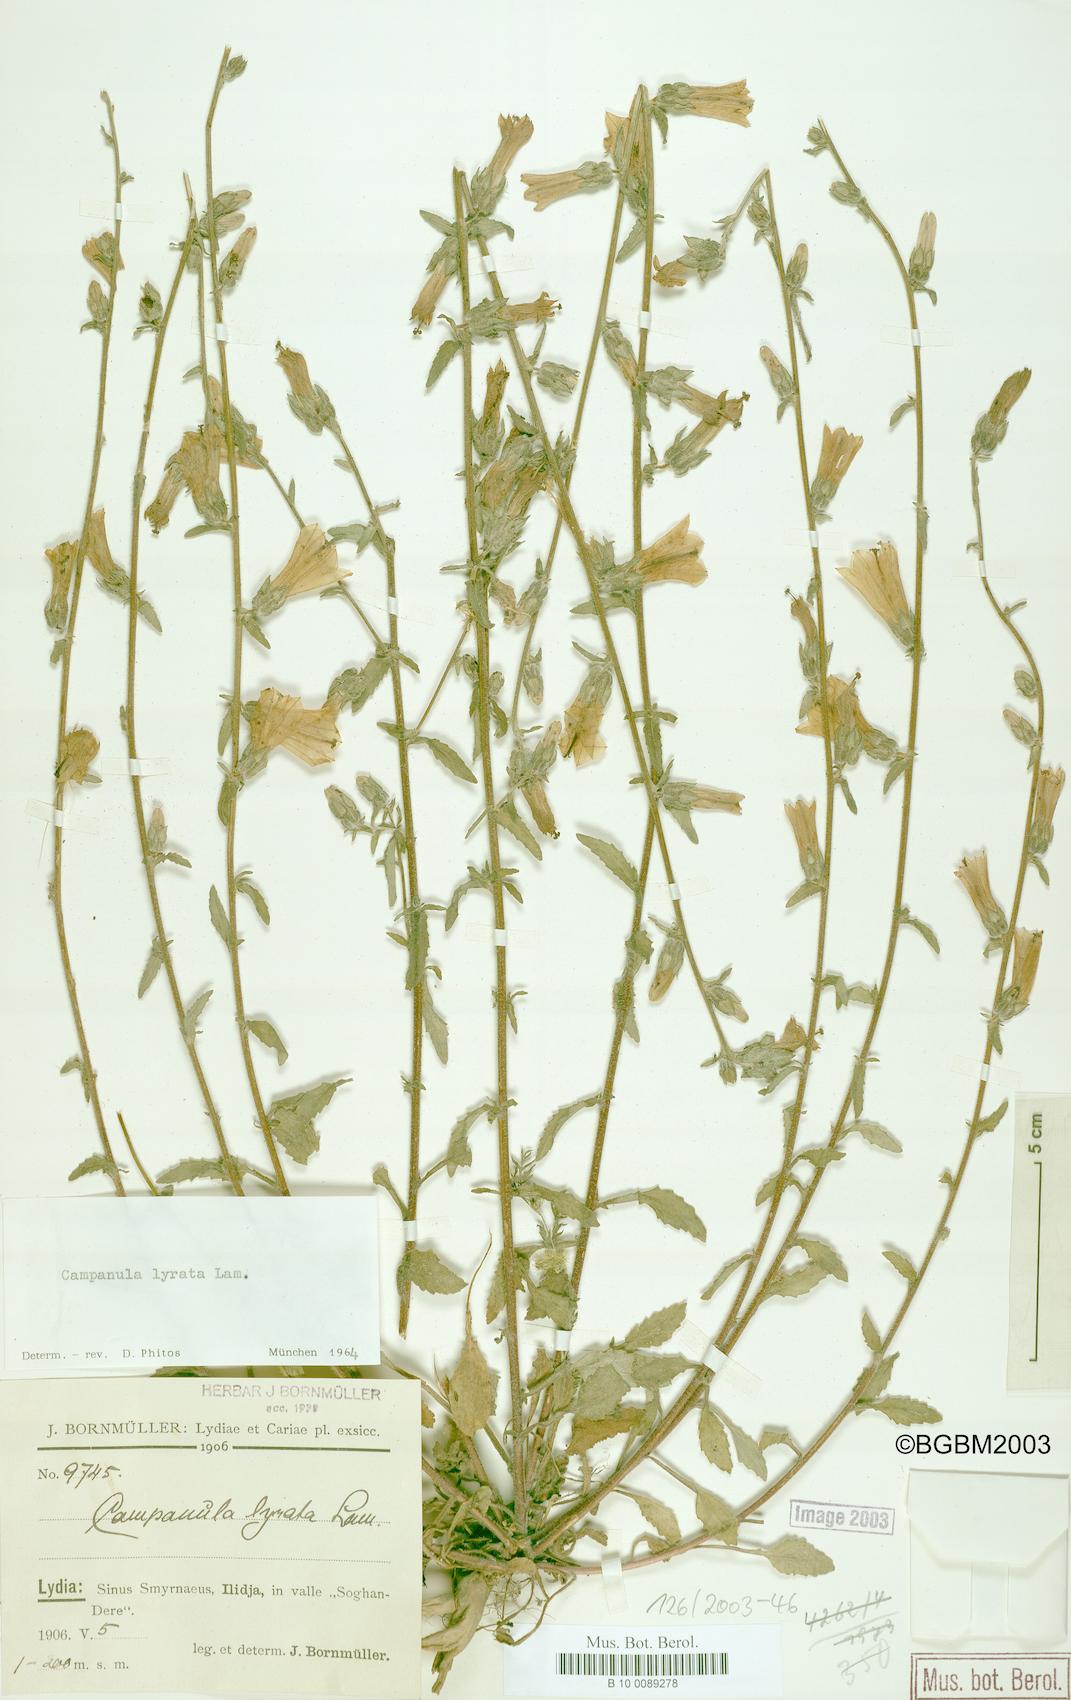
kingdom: Plantae
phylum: Tracheophyta
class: Magnoliopsida
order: Asterales
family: Campanulaceae
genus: Campanula
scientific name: Campanula lyrata
